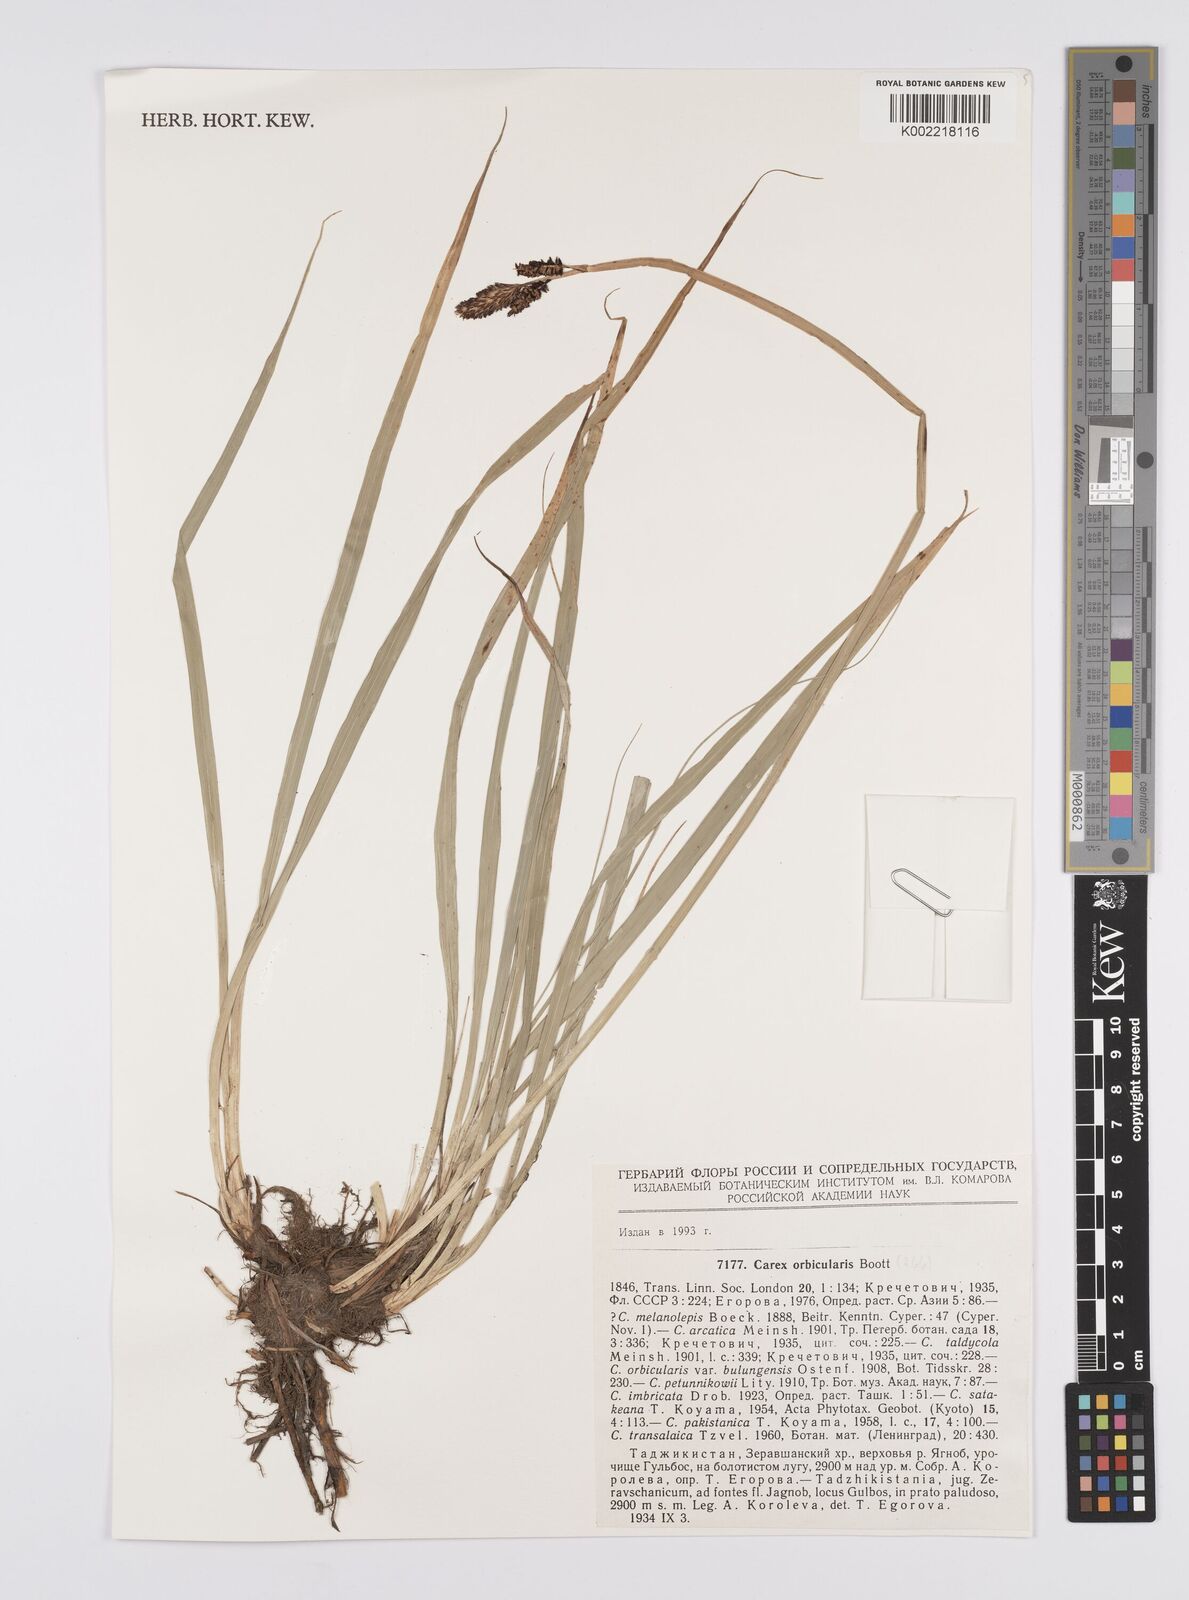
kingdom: Plantae
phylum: Tracheophyta
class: Liliopsida
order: Poales
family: Cyperaceae
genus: Carex
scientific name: Carex orbicularis
